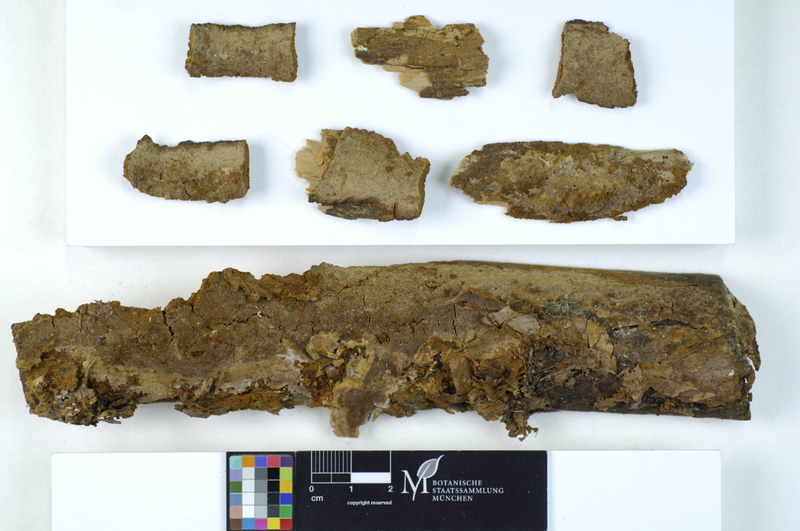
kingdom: Plantae
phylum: Tracheophyta
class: Pinopsida
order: Pinales
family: Pinaceae
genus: Pinus
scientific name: Pinus
